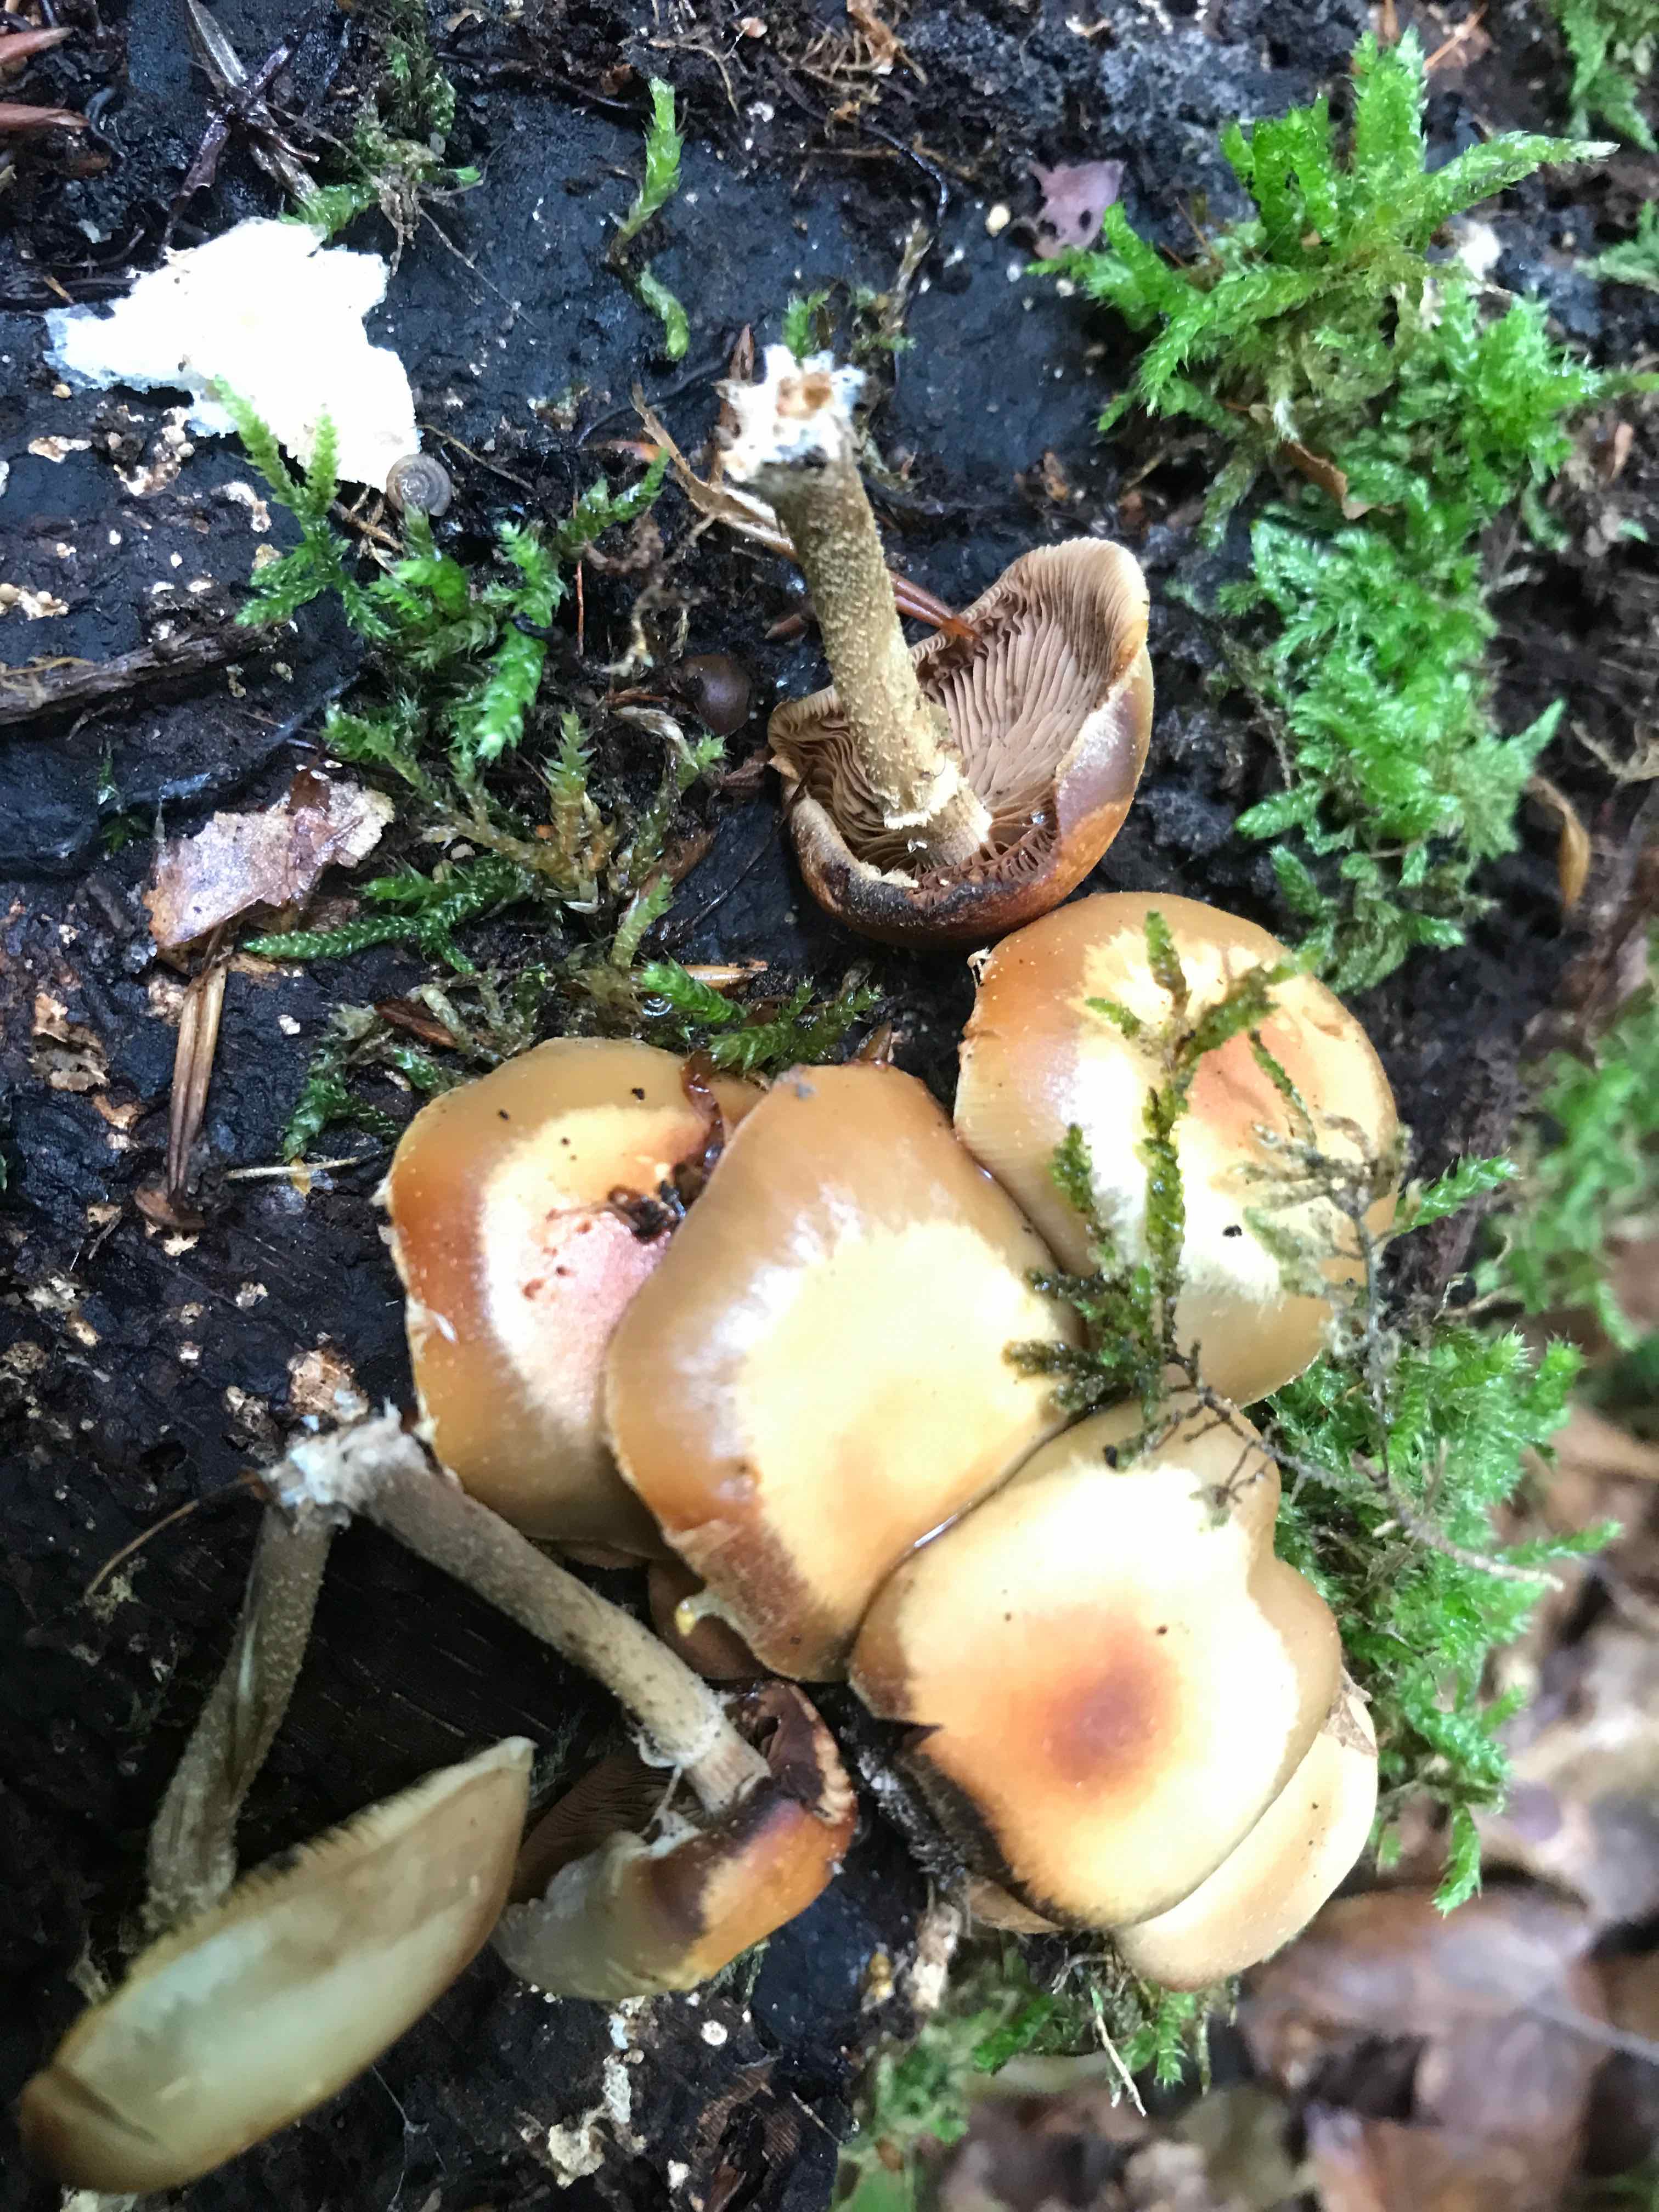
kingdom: Fungi
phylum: Basidiomycota
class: Agaricomycetes
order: Agaricales
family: Strophariaceae
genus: Kuehneromyces
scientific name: Kuehneromyces mutabilis
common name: foranderlig skælhat
